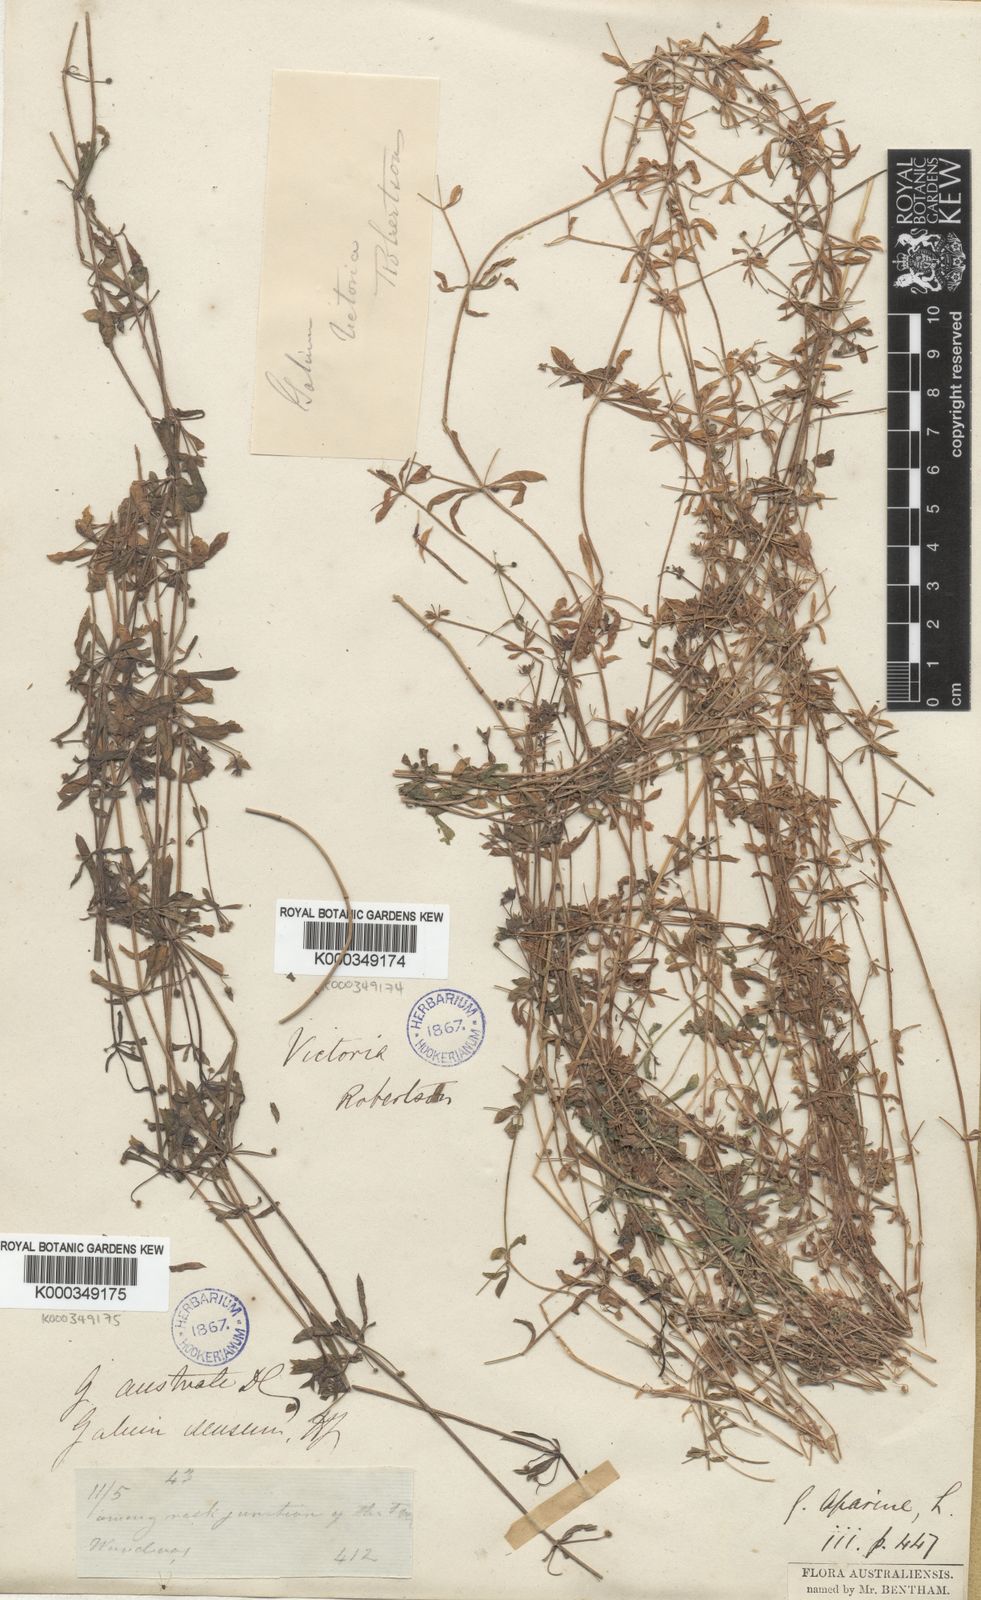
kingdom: Plantae
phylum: Tracheophyta
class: Magnoliopsida
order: Gentianales
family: Rubiaceae
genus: Galium
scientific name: Galium aparine
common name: Cleavers
